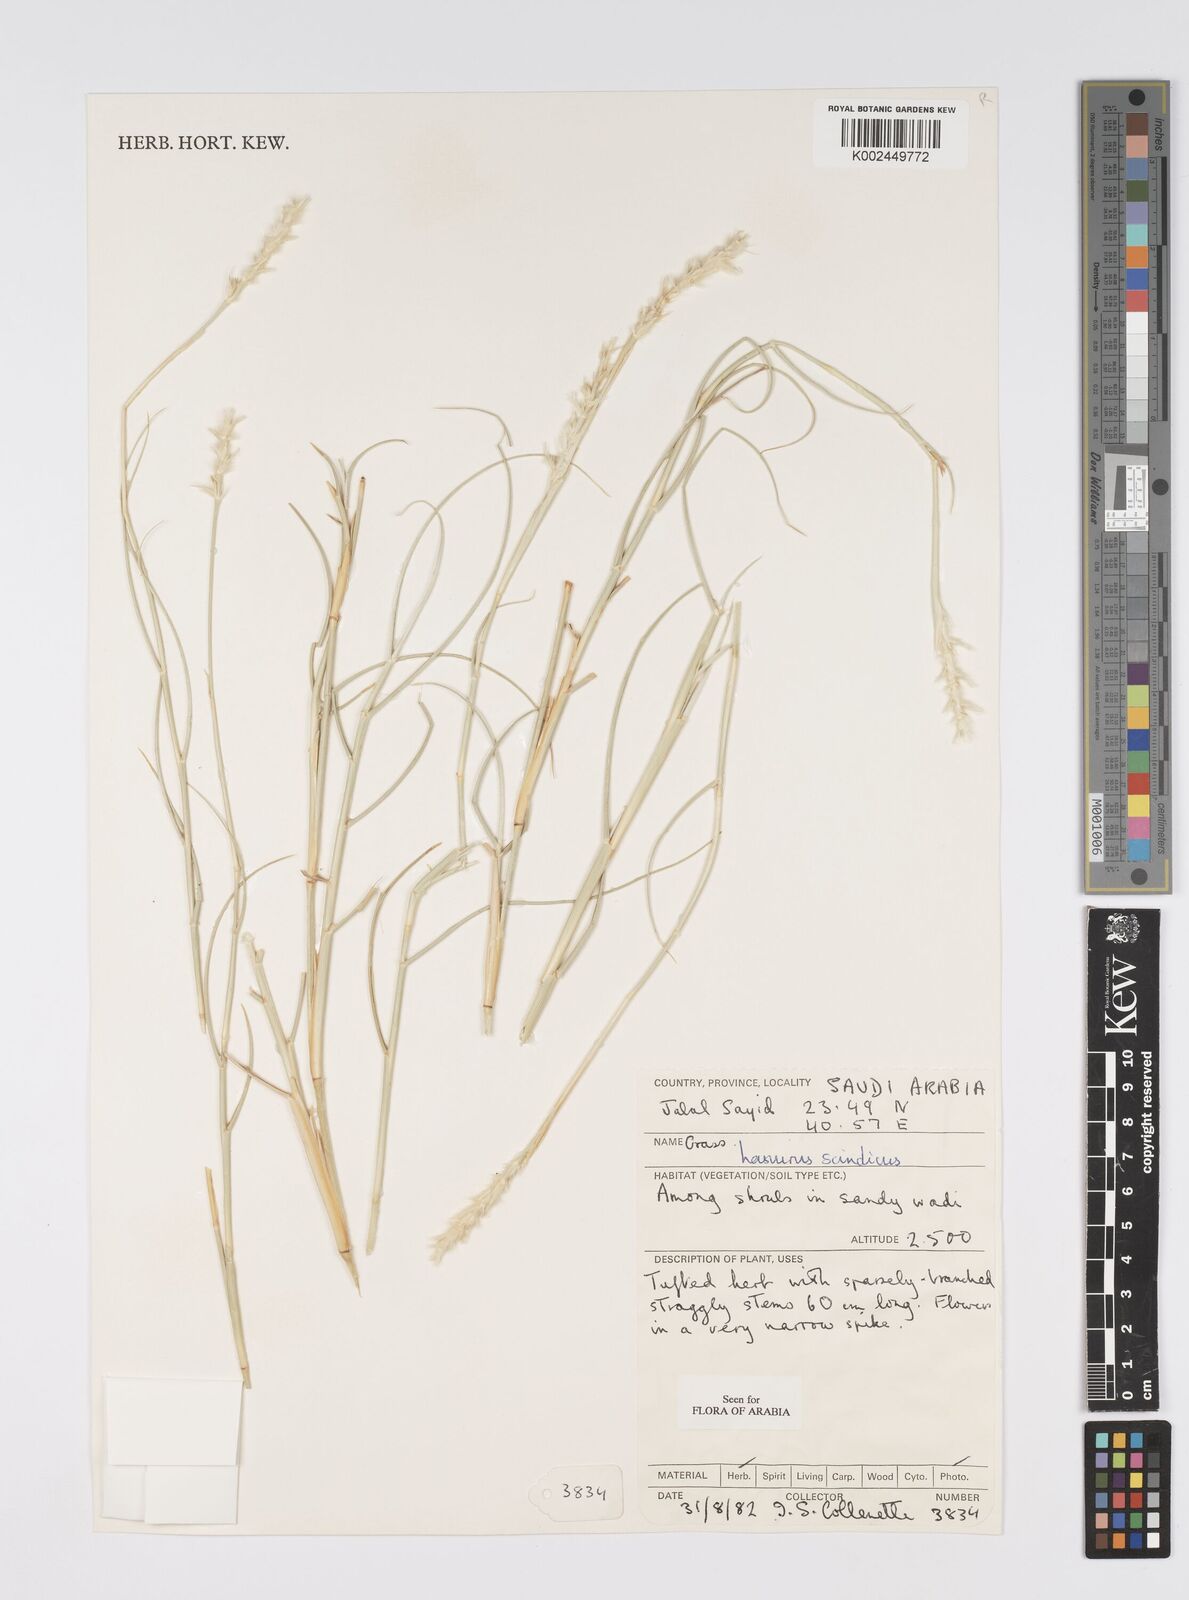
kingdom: Plantae
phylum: Tracheophyta
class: Liliopsida
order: Poales
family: Poaceae
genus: Lasiurus
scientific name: Lasiurus scindicus
